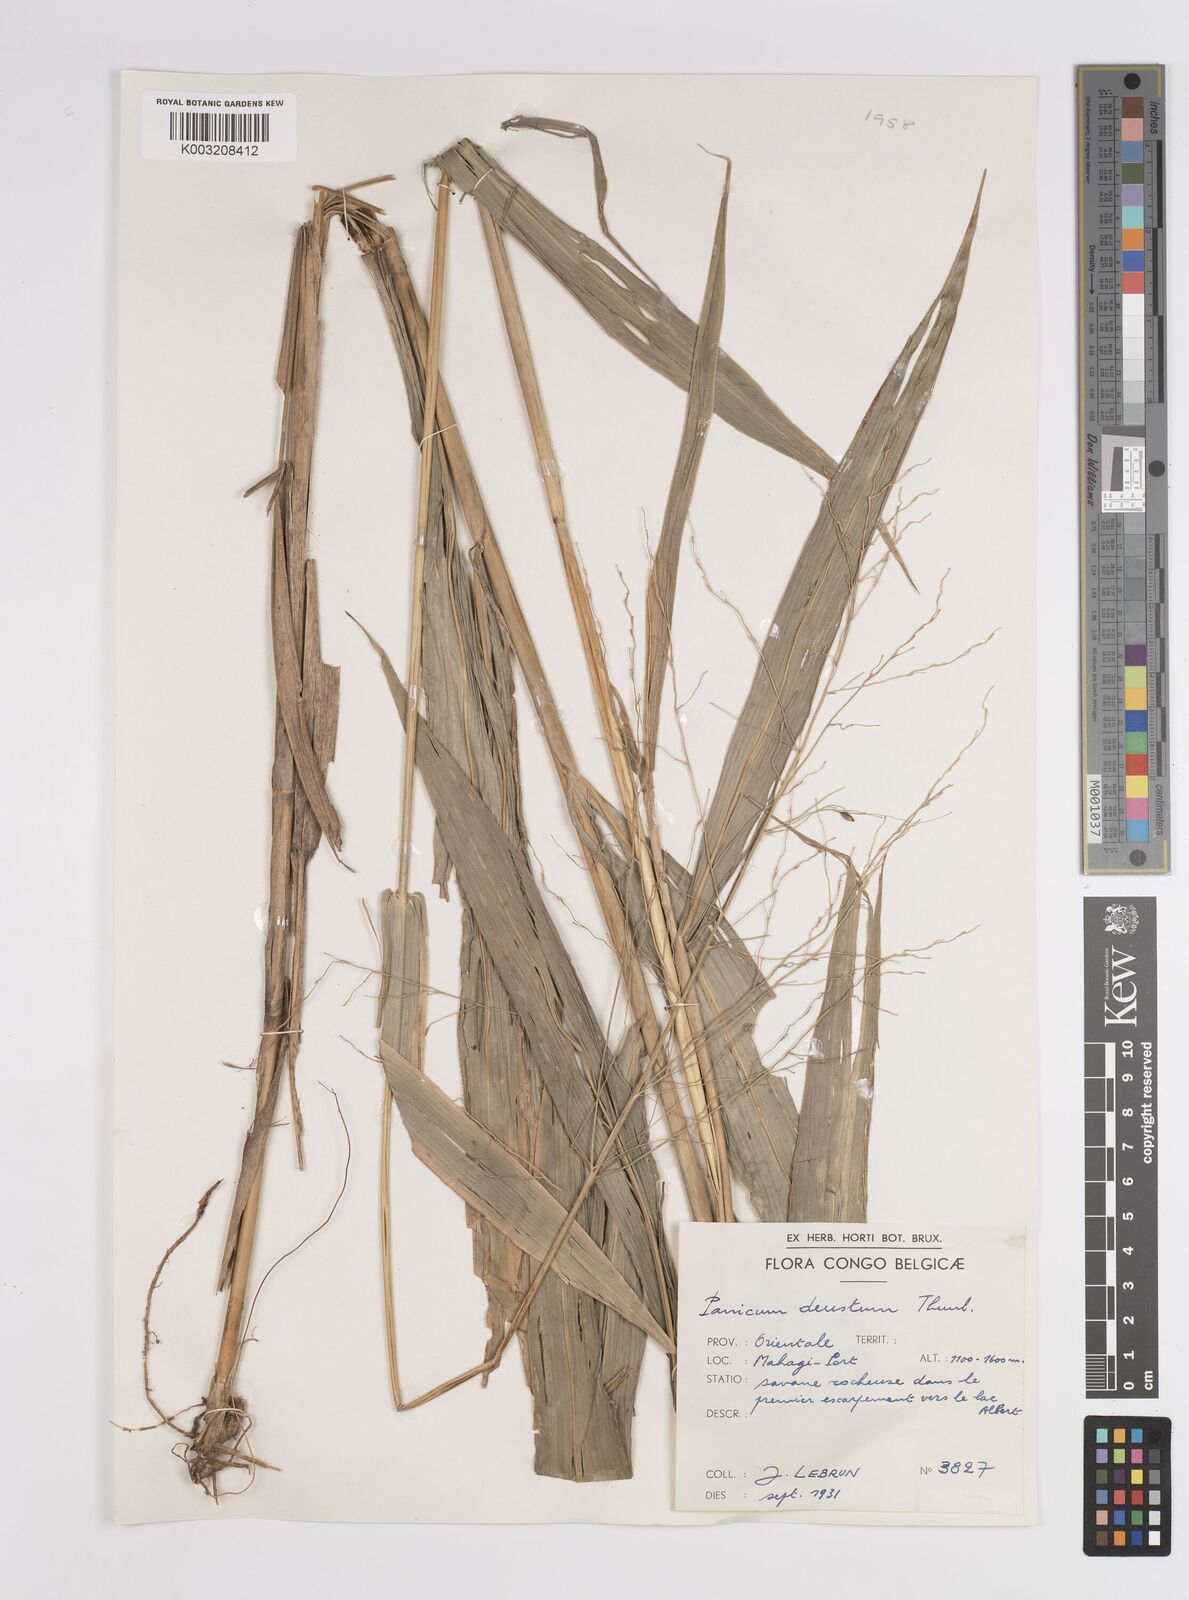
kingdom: Plantae
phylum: Tracheophyta
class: Liliopsida
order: Poales
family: Poaceae
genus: Panicum
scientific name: Panicum deustum
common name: Reed panicum
